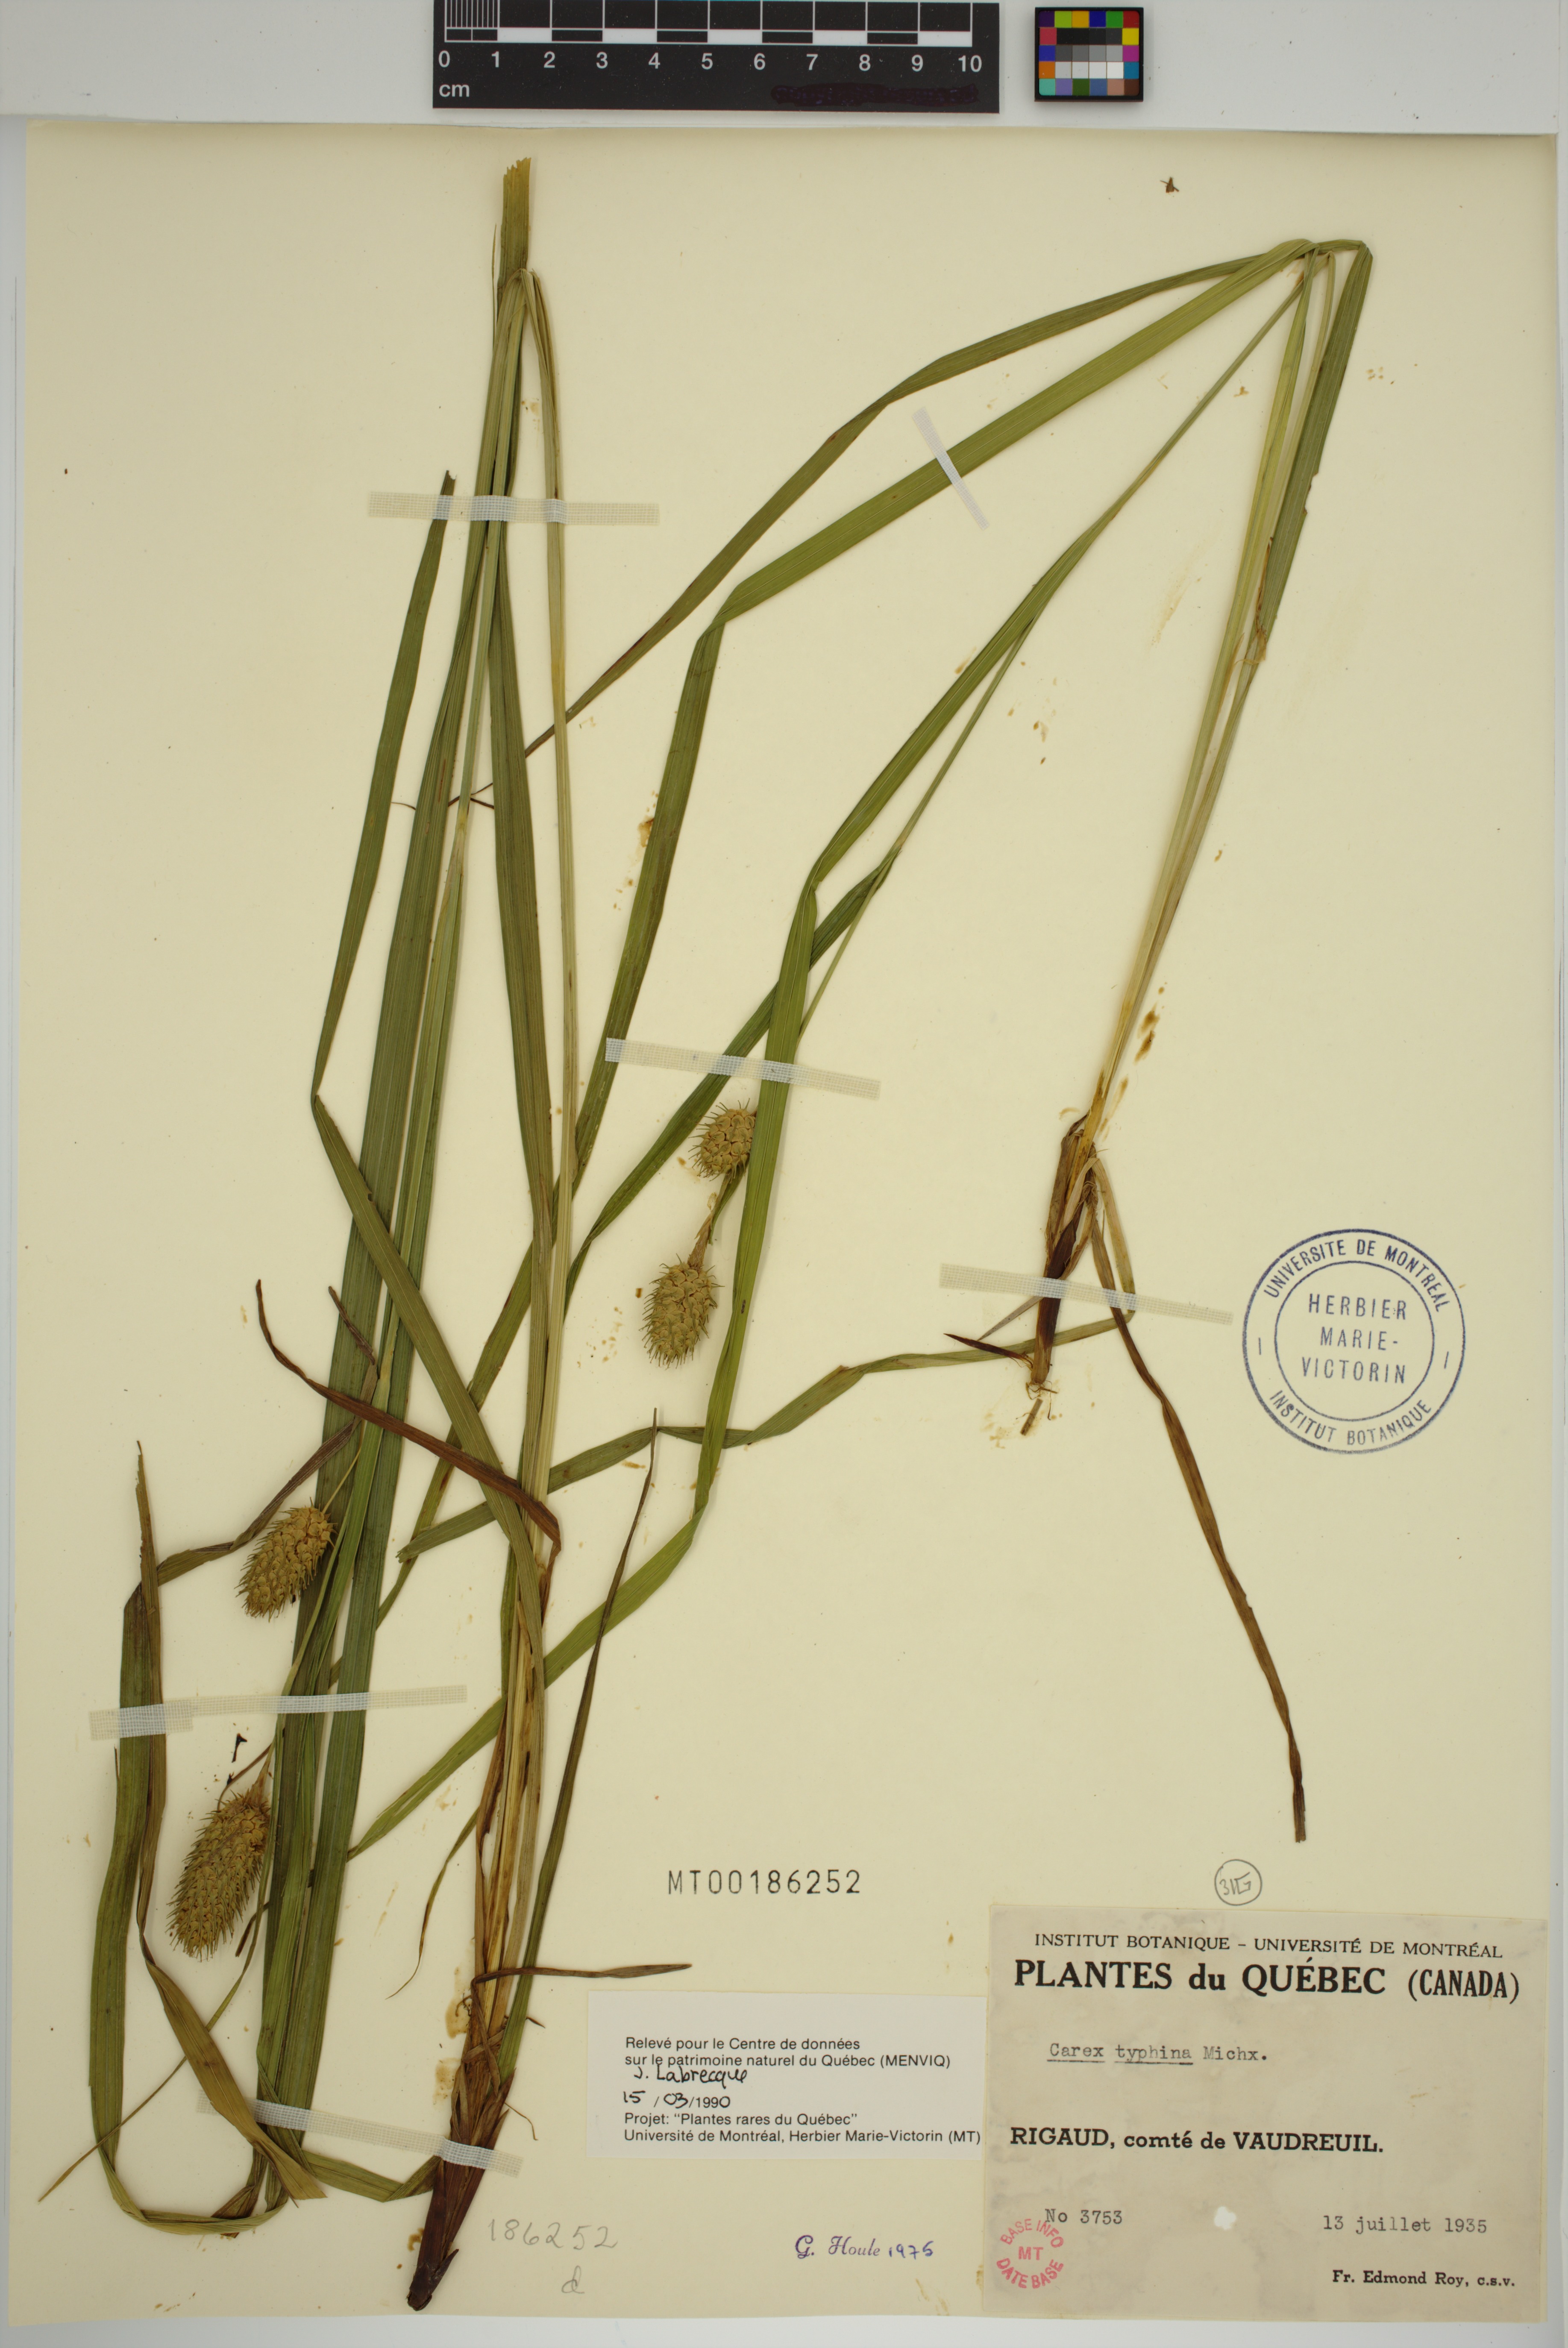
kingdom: Plantae
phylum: Tracheophyta
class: Liliopsida
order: Poales
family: Cyperaceae
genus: Carex
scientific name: Carex typhina
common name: Cattail sedge
